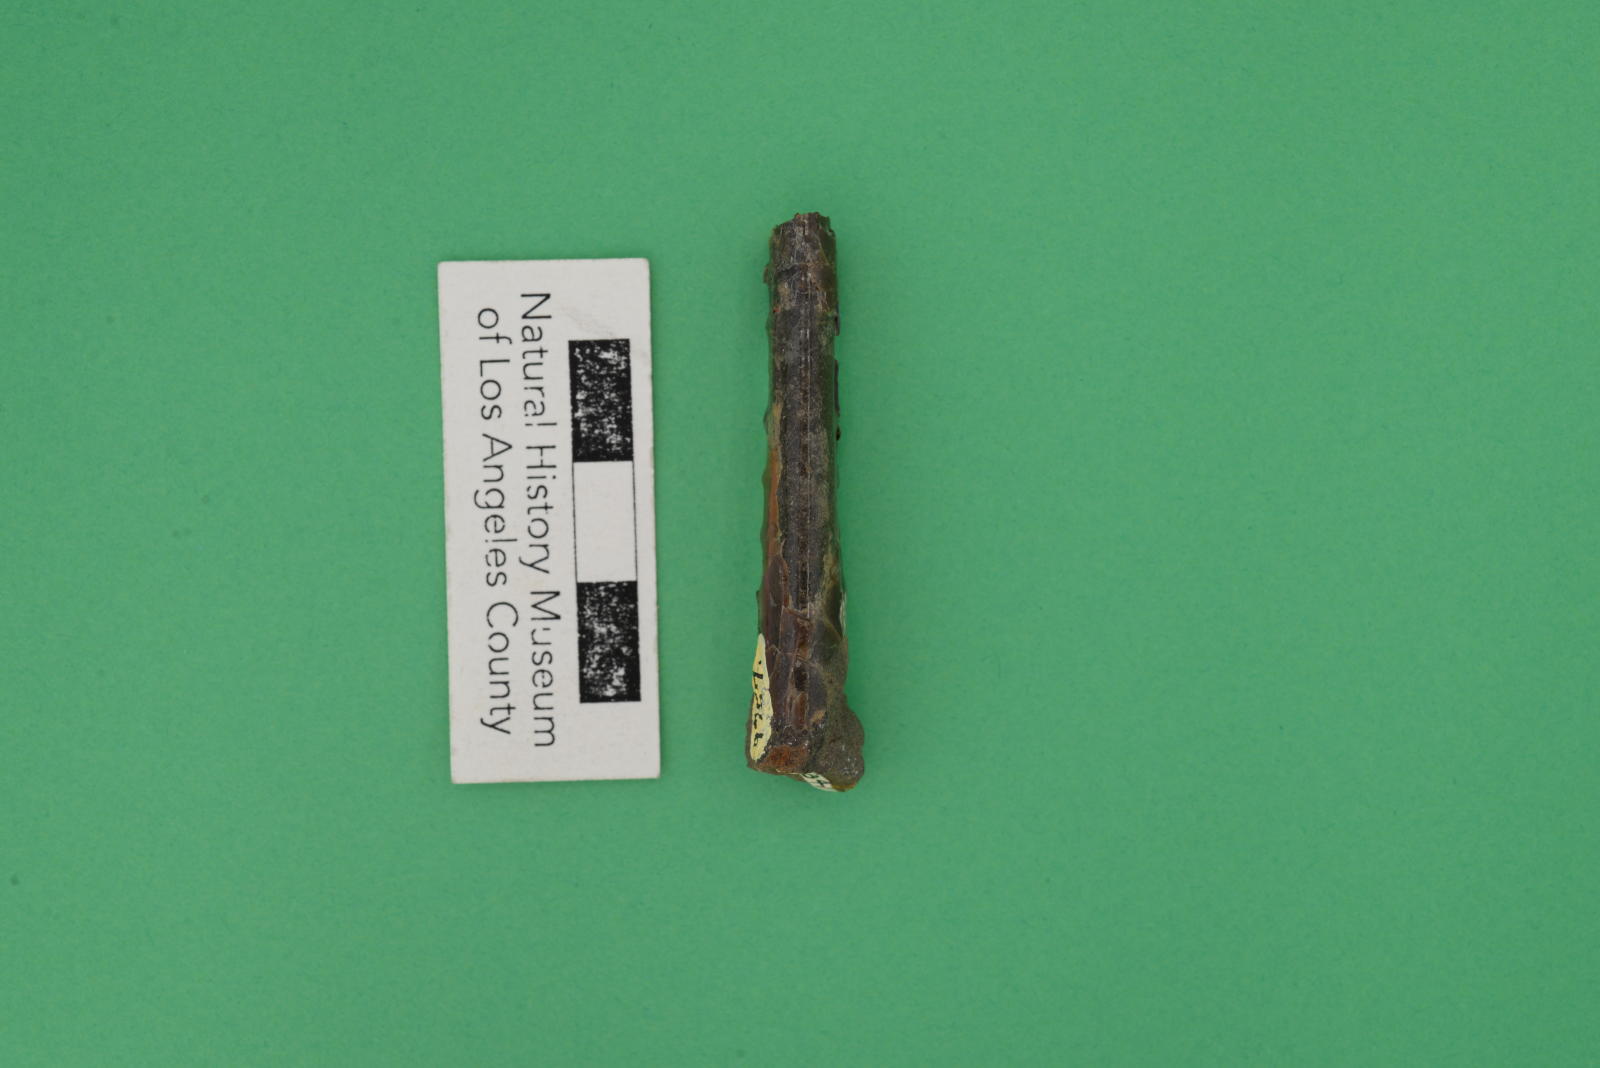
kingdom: Animalia
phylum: Mollusca
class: Cephalopoda
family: Baculitidae
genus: Baculites
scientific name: Baculites schencki
